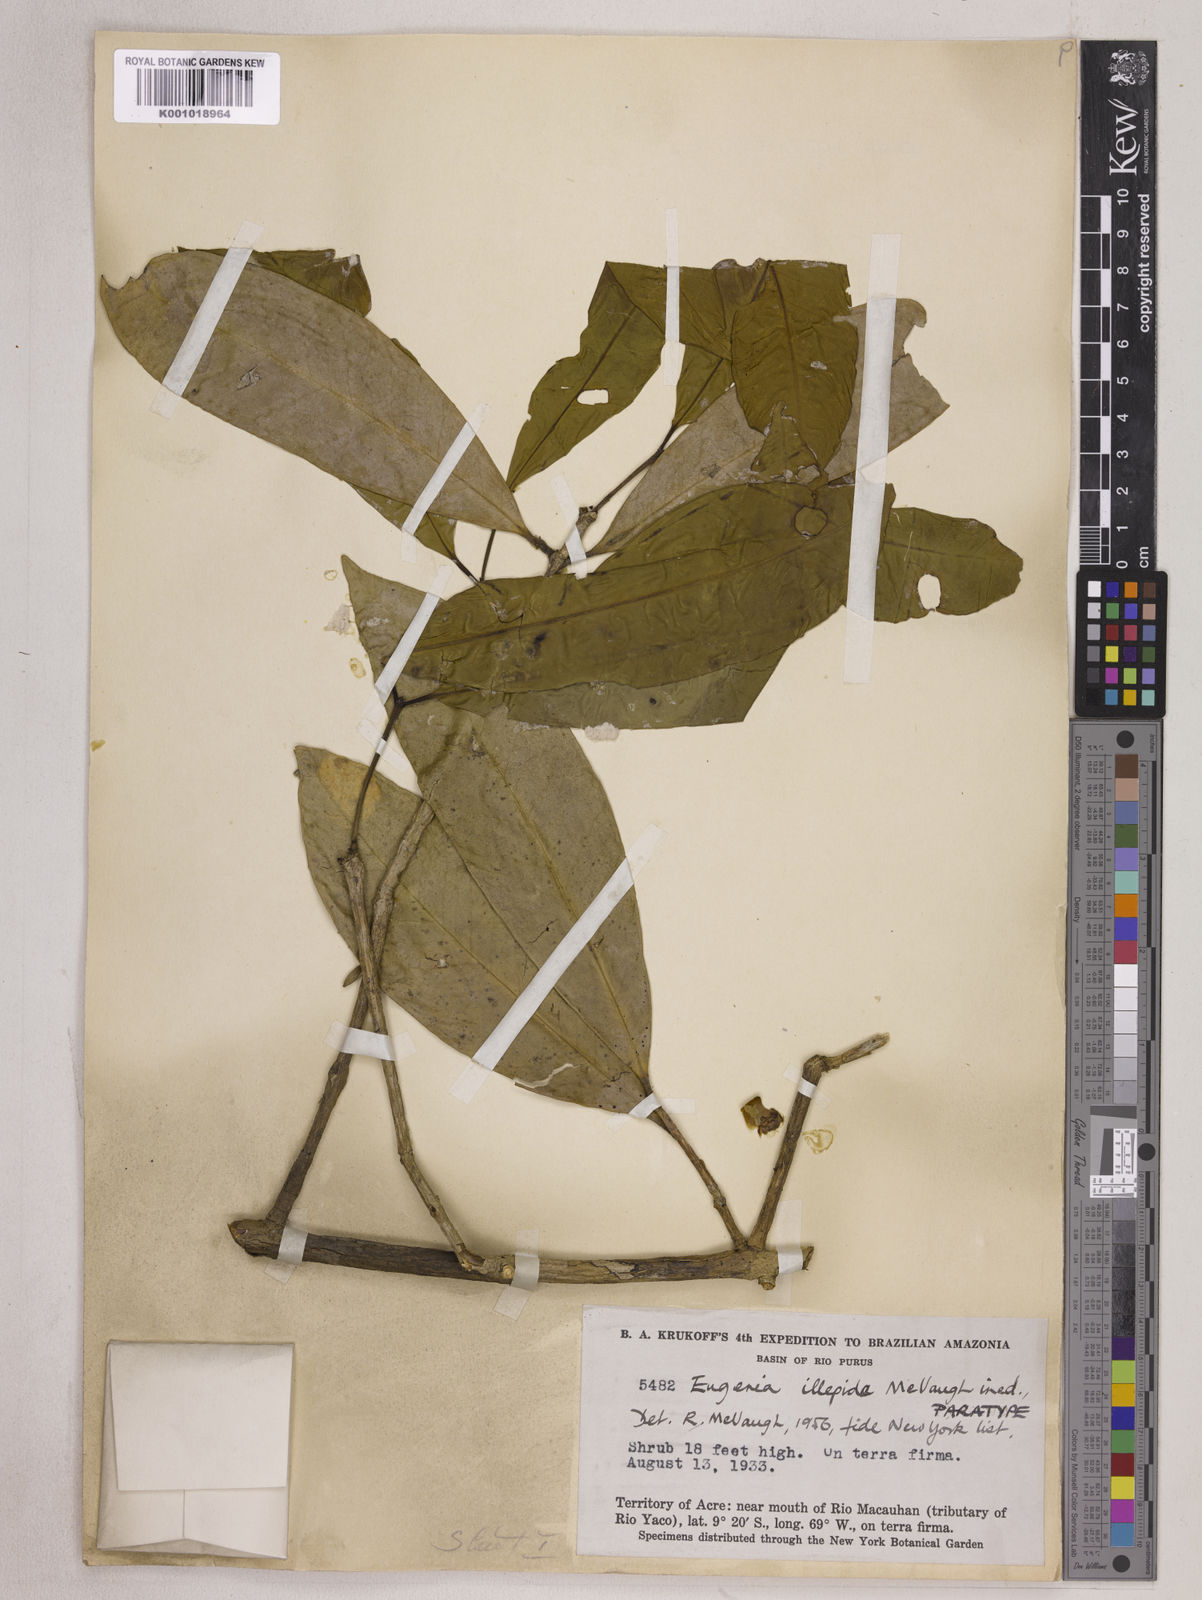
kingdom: Plantae
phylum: Tracheophyta
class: Magnoliopsida
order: Myrtales
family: Myrtaceae
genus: Eugenia
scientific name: Eugenia illepida
